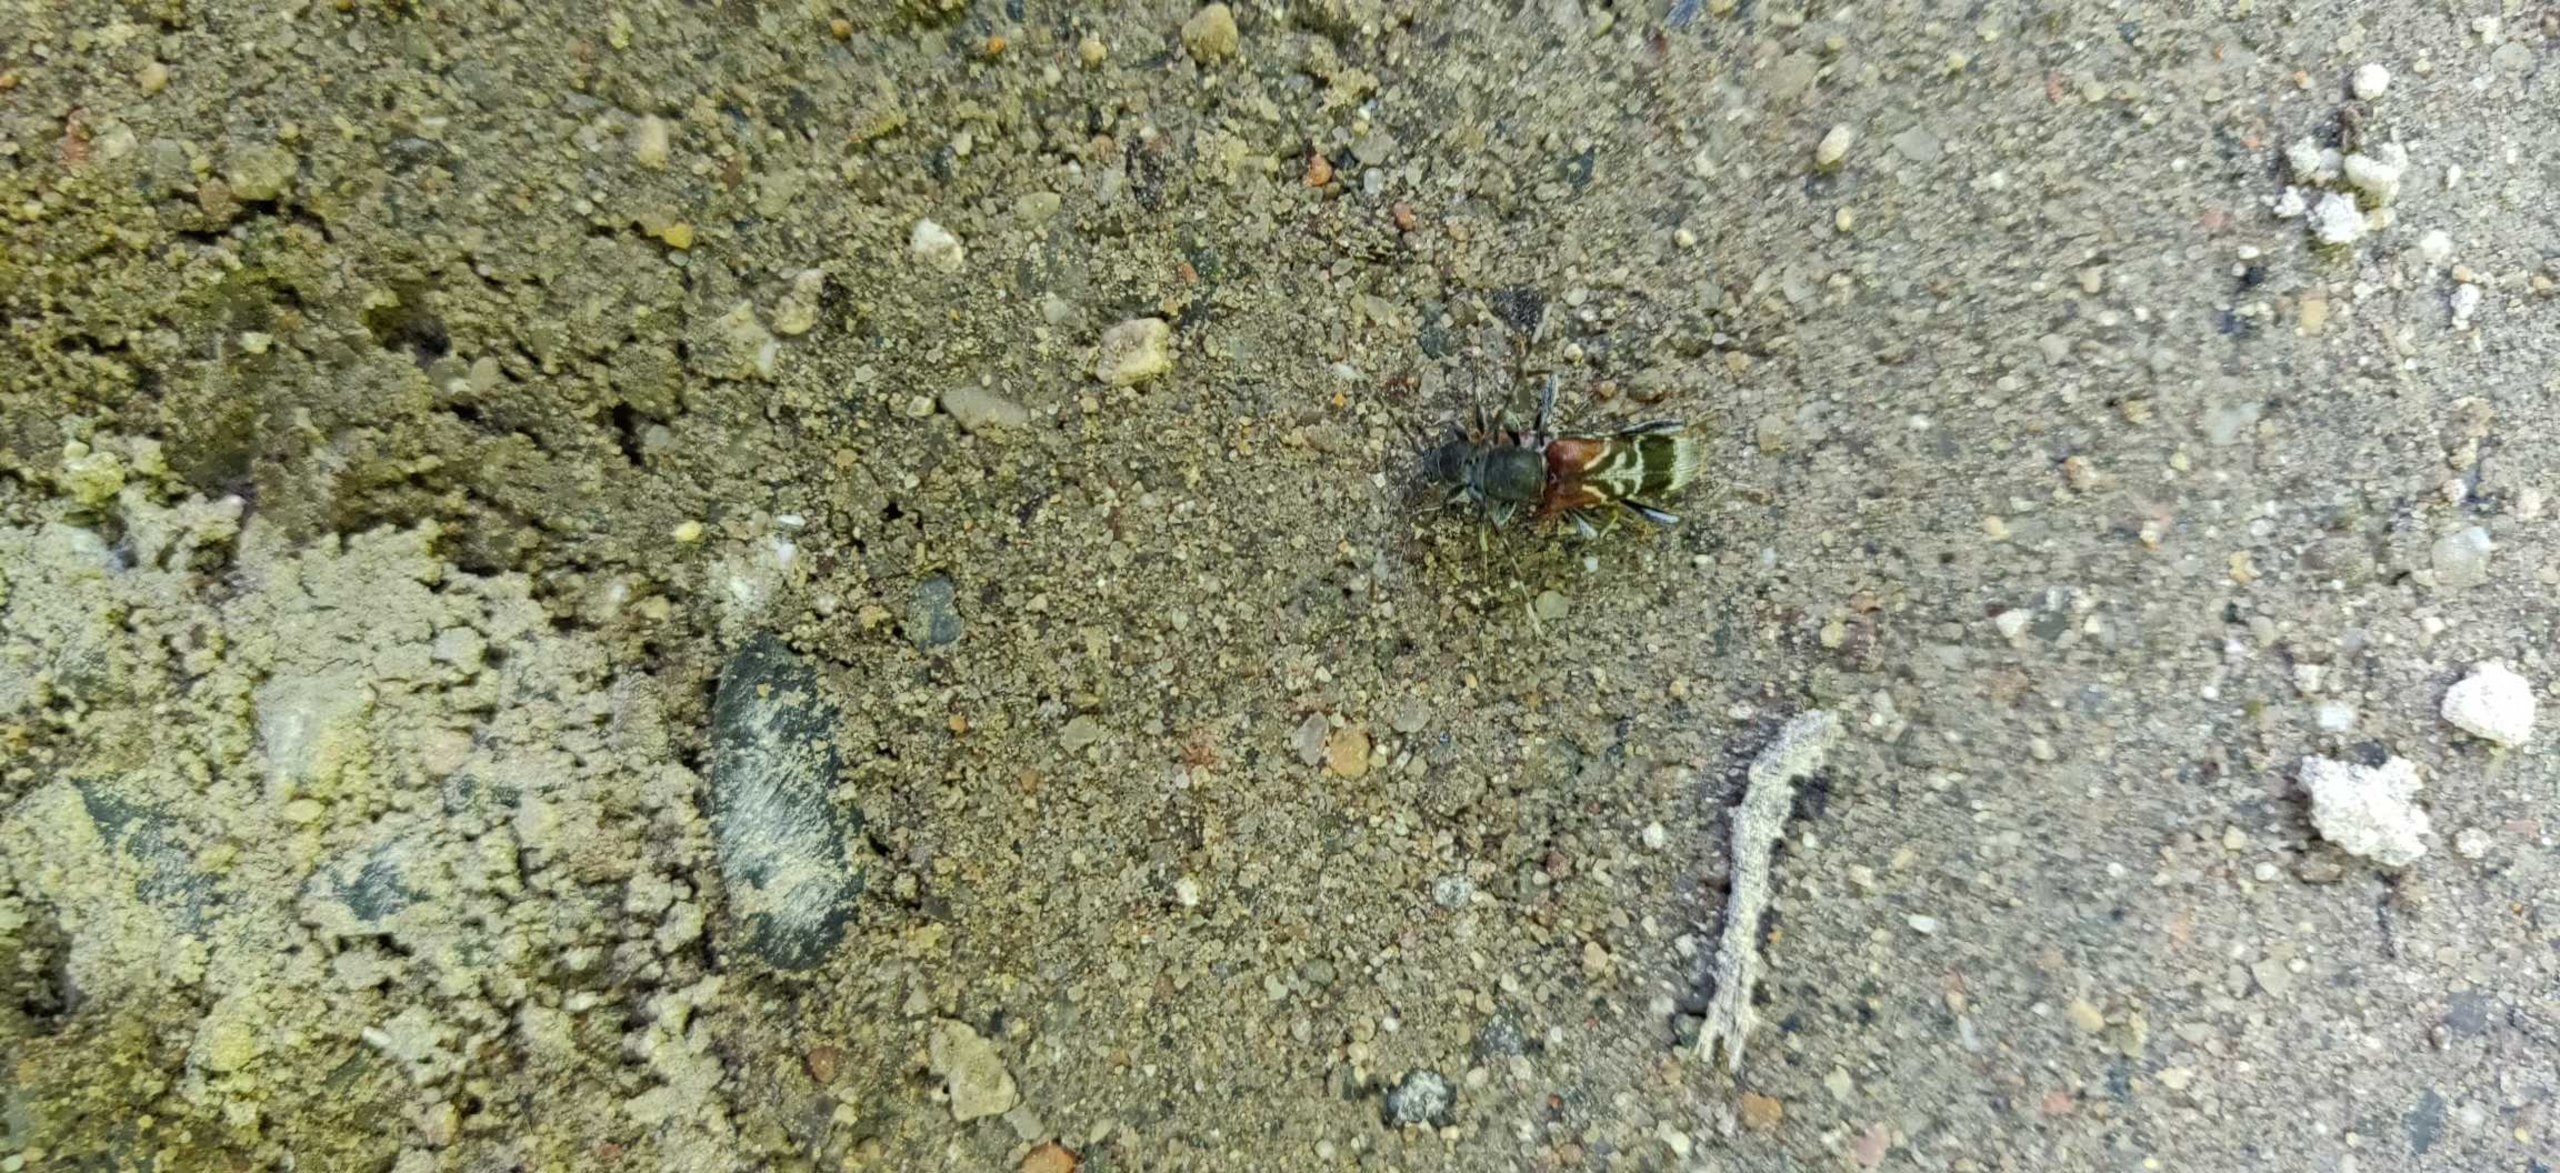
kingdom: Animalia
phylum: Arthropoda
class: Insecta
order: Coleoptera
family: Cerambycidae
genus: Anaglyptus
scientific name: Anaglyptus mysticus
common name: Hvidtjørnshvepsebuk
